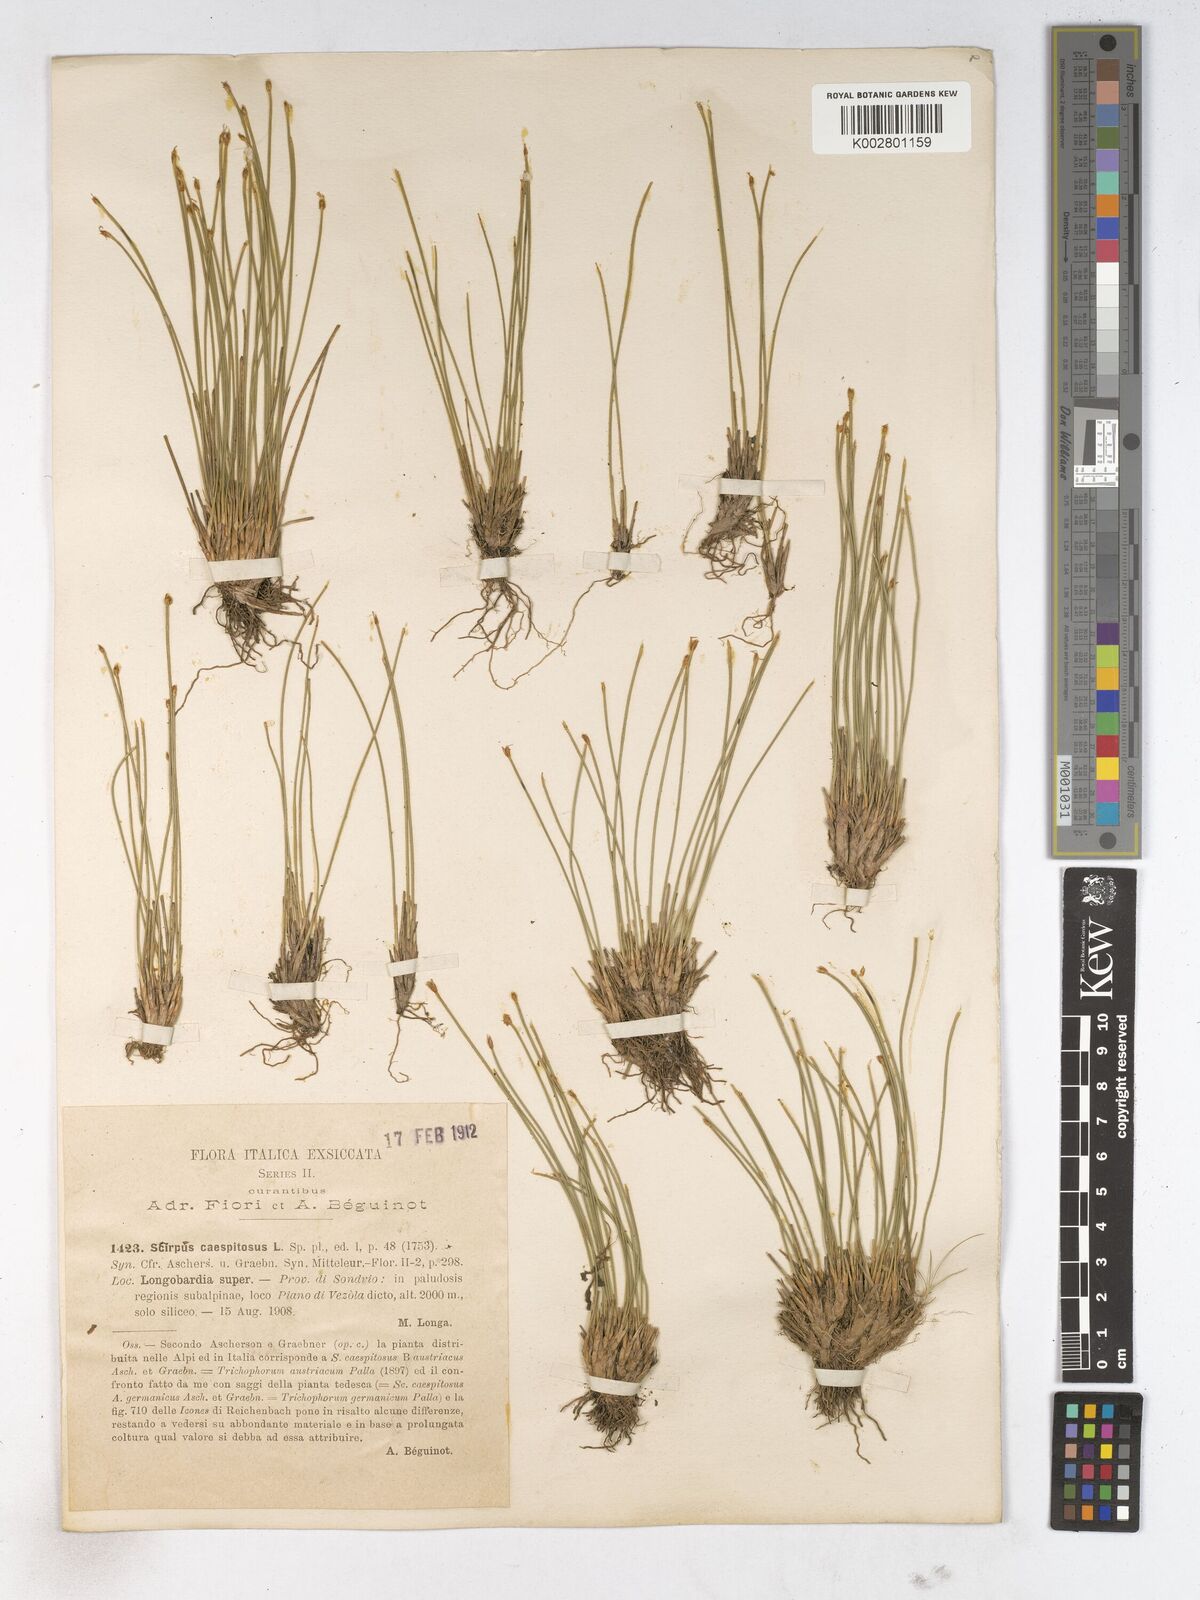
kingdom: Plantae
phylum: Tracheophyta
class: Liliopsida
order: Poales
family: Cyperaceae
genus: Trichophorum
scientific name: Trichophorum cespitosum
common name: Cespitose bulrush
